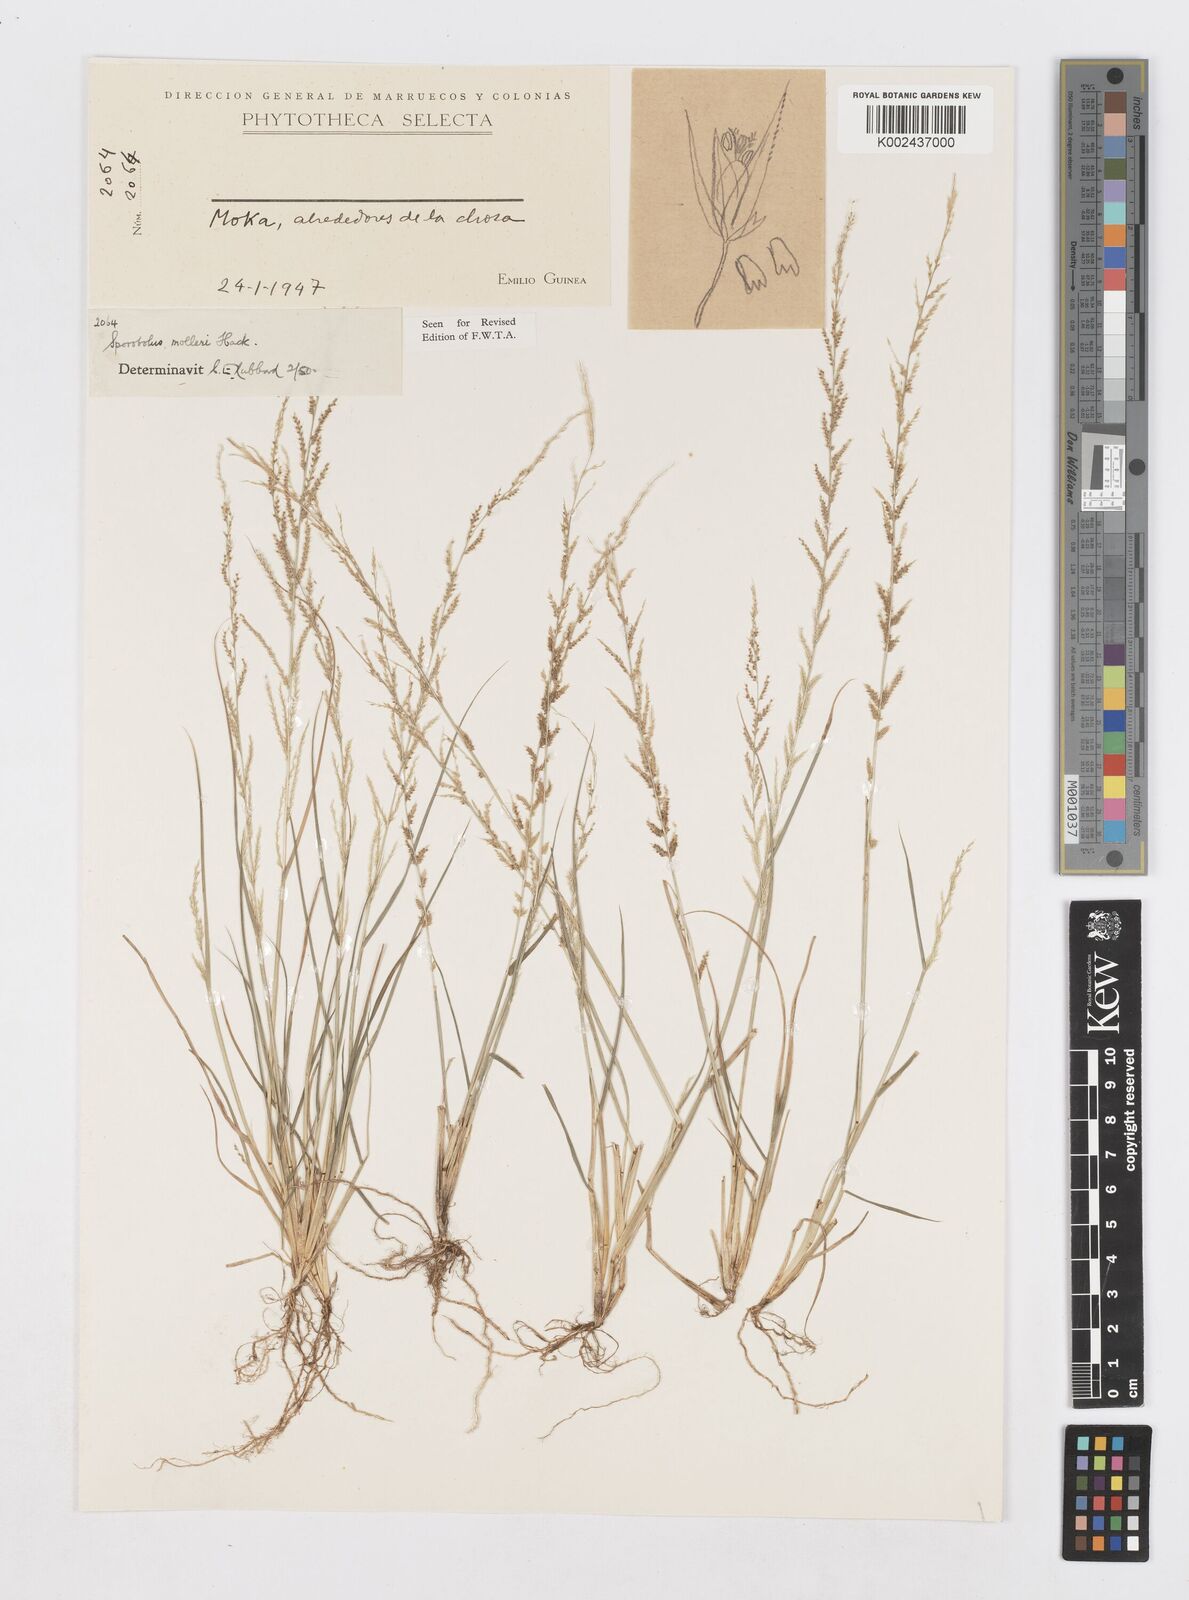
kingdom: Plantae
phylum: Tracheophyta
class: Liliopsida
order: Poales
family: Poaceae
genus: Sporobolus
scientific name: Sporobolus molleri
